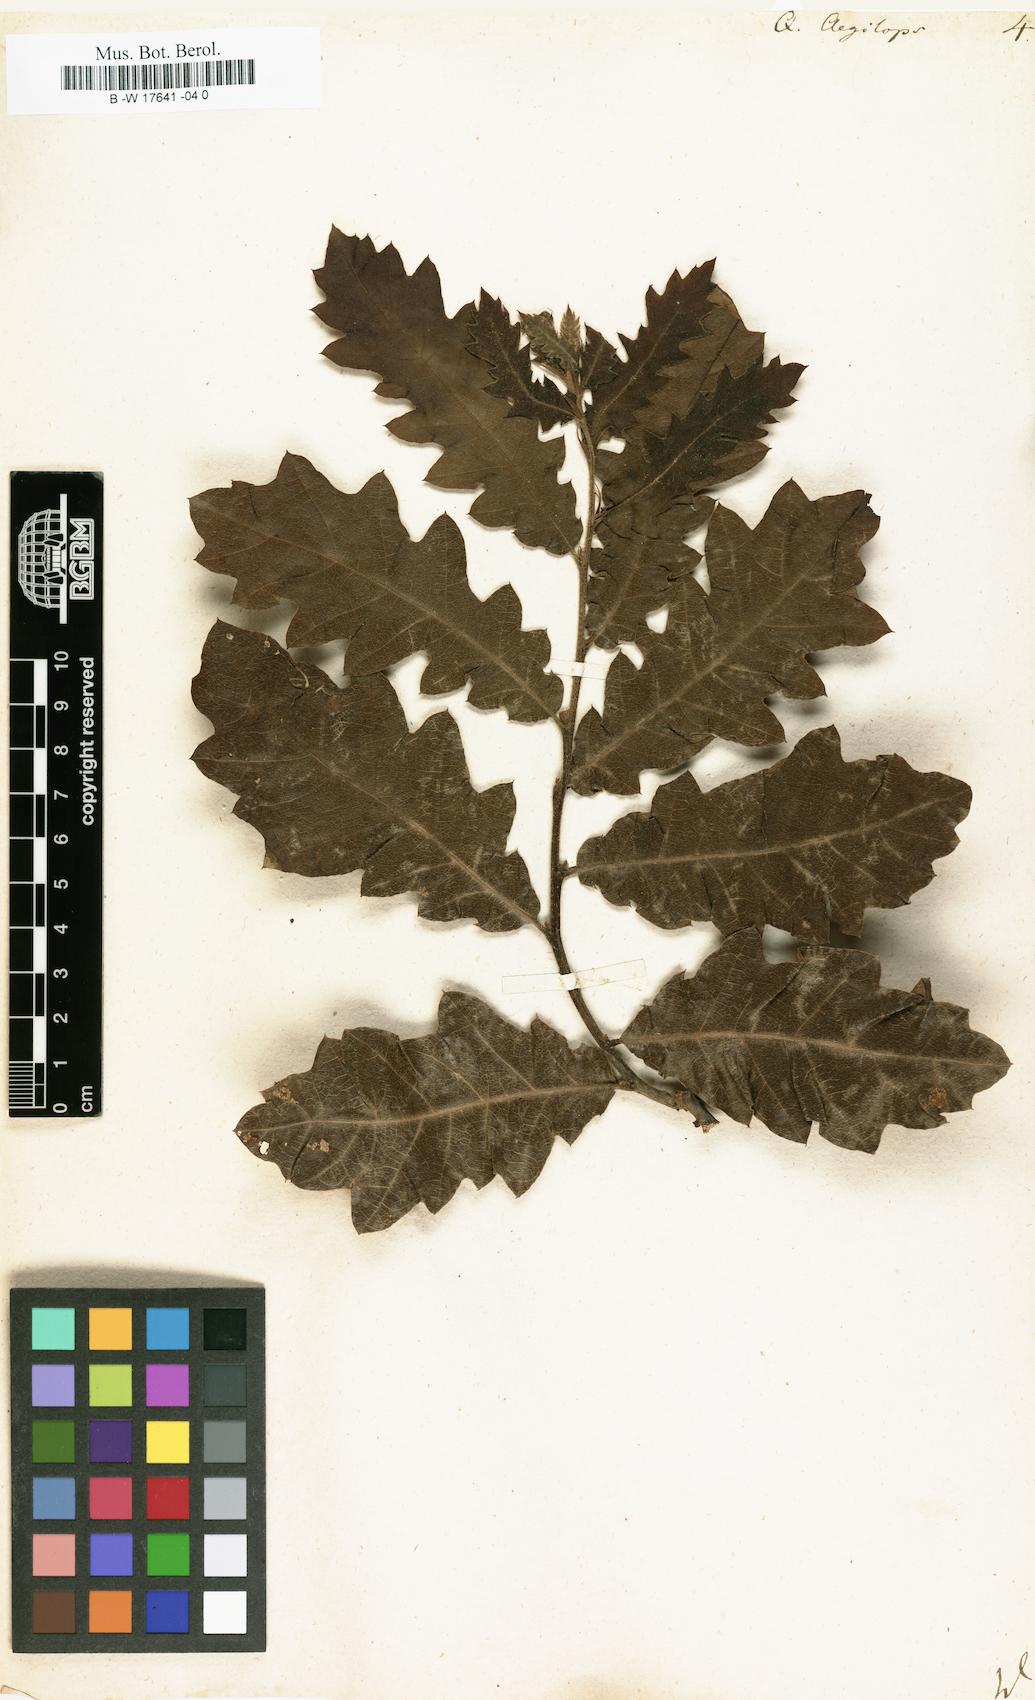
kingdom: Plantae
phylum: Tracheophyta
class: Magnoliopsida
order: Fagales
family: Fagaceae
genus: Quercus
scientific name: Quercus
